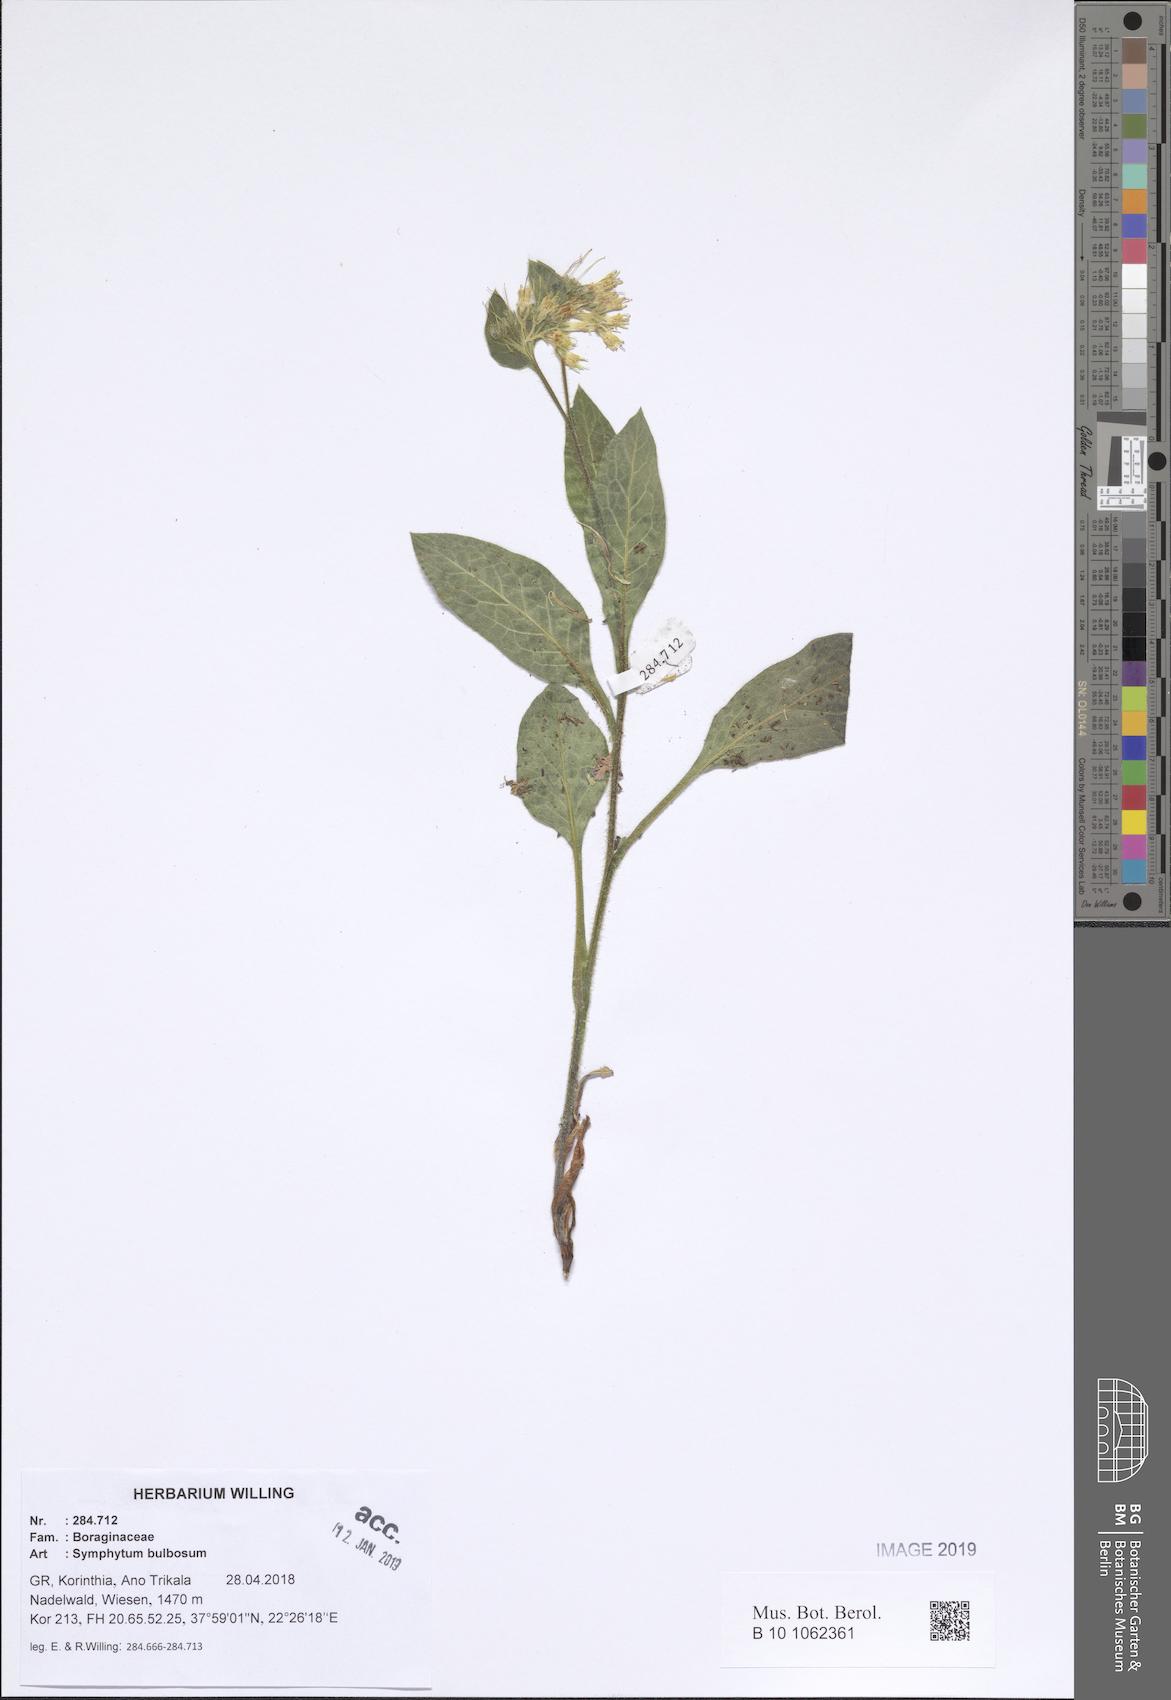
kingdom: Plantae
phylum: Tracheophyta
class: Magnoliopsida
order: Boraginales
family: Boraginaceae
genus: Symphytum
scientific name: Symphytum bulbosum
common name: Bulbous comfrey
